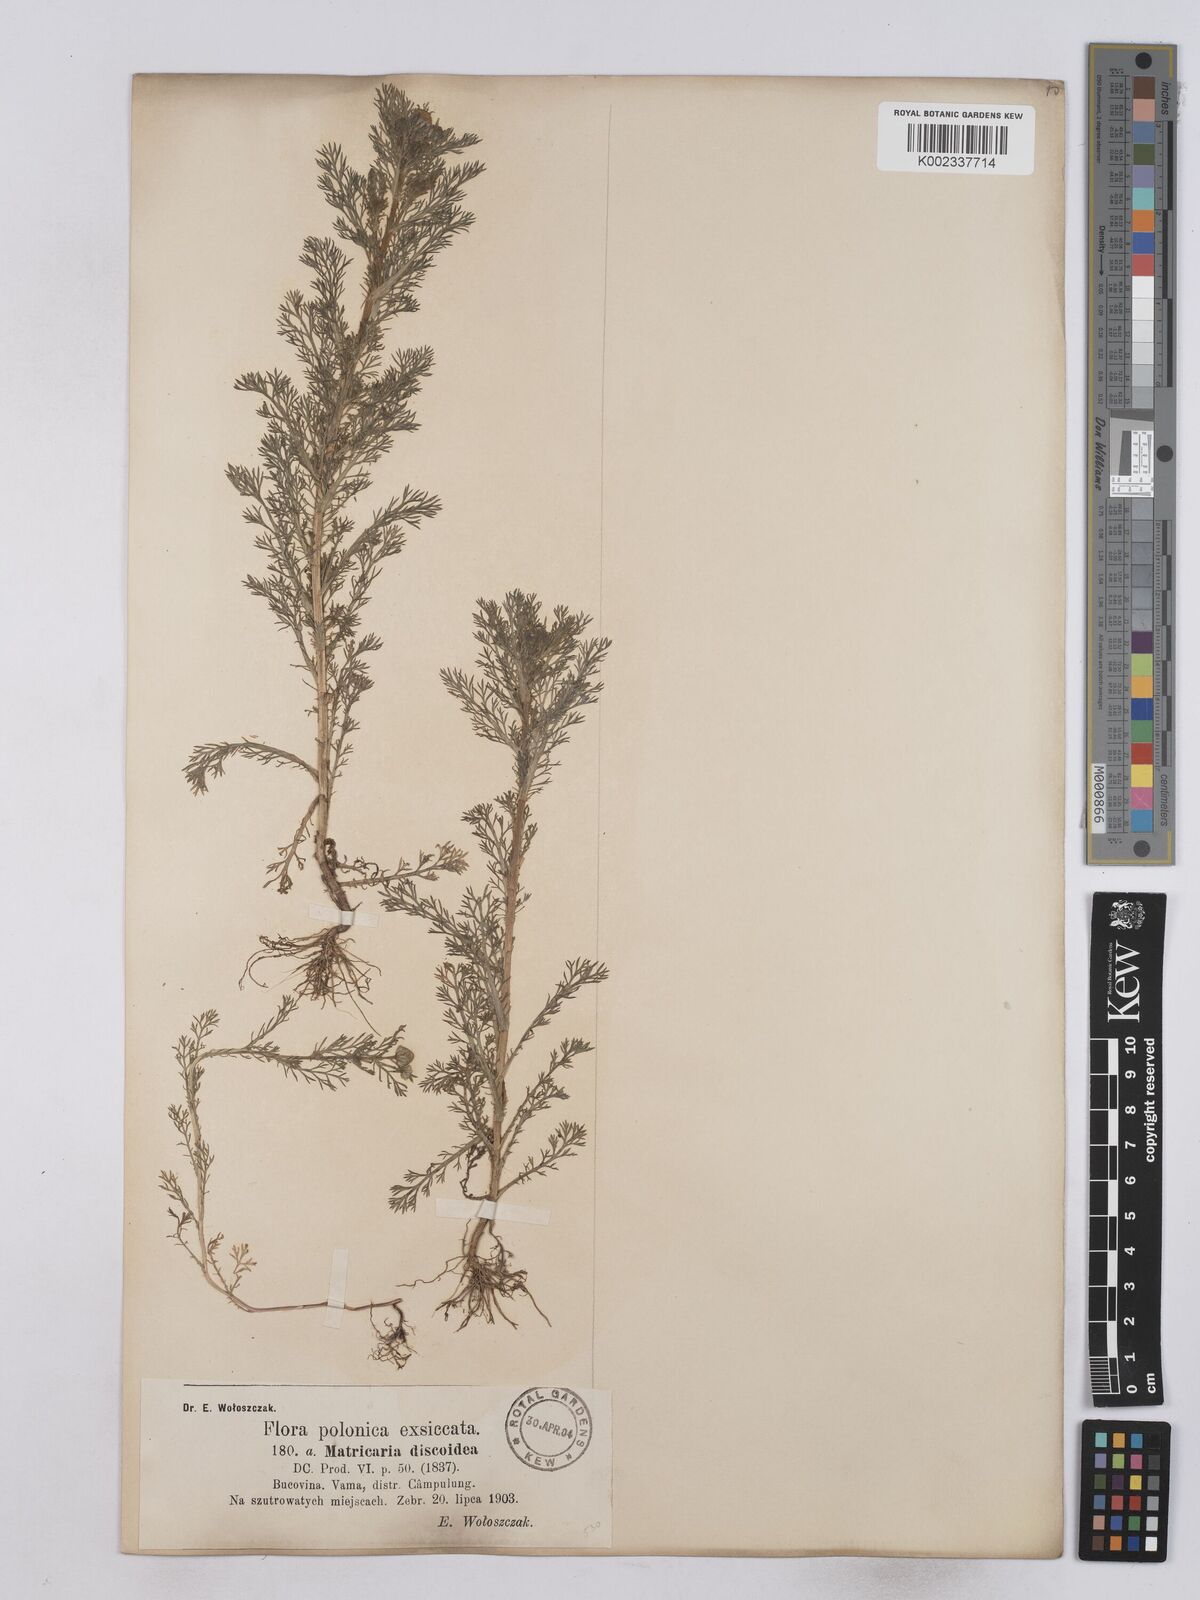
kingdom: Plantae
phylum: Tracheophyta
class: Magnoliopsida
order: Asterales
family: Asteraceae
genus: Matricaria
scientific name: Matricaria discoidea
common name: Disc mayweed
